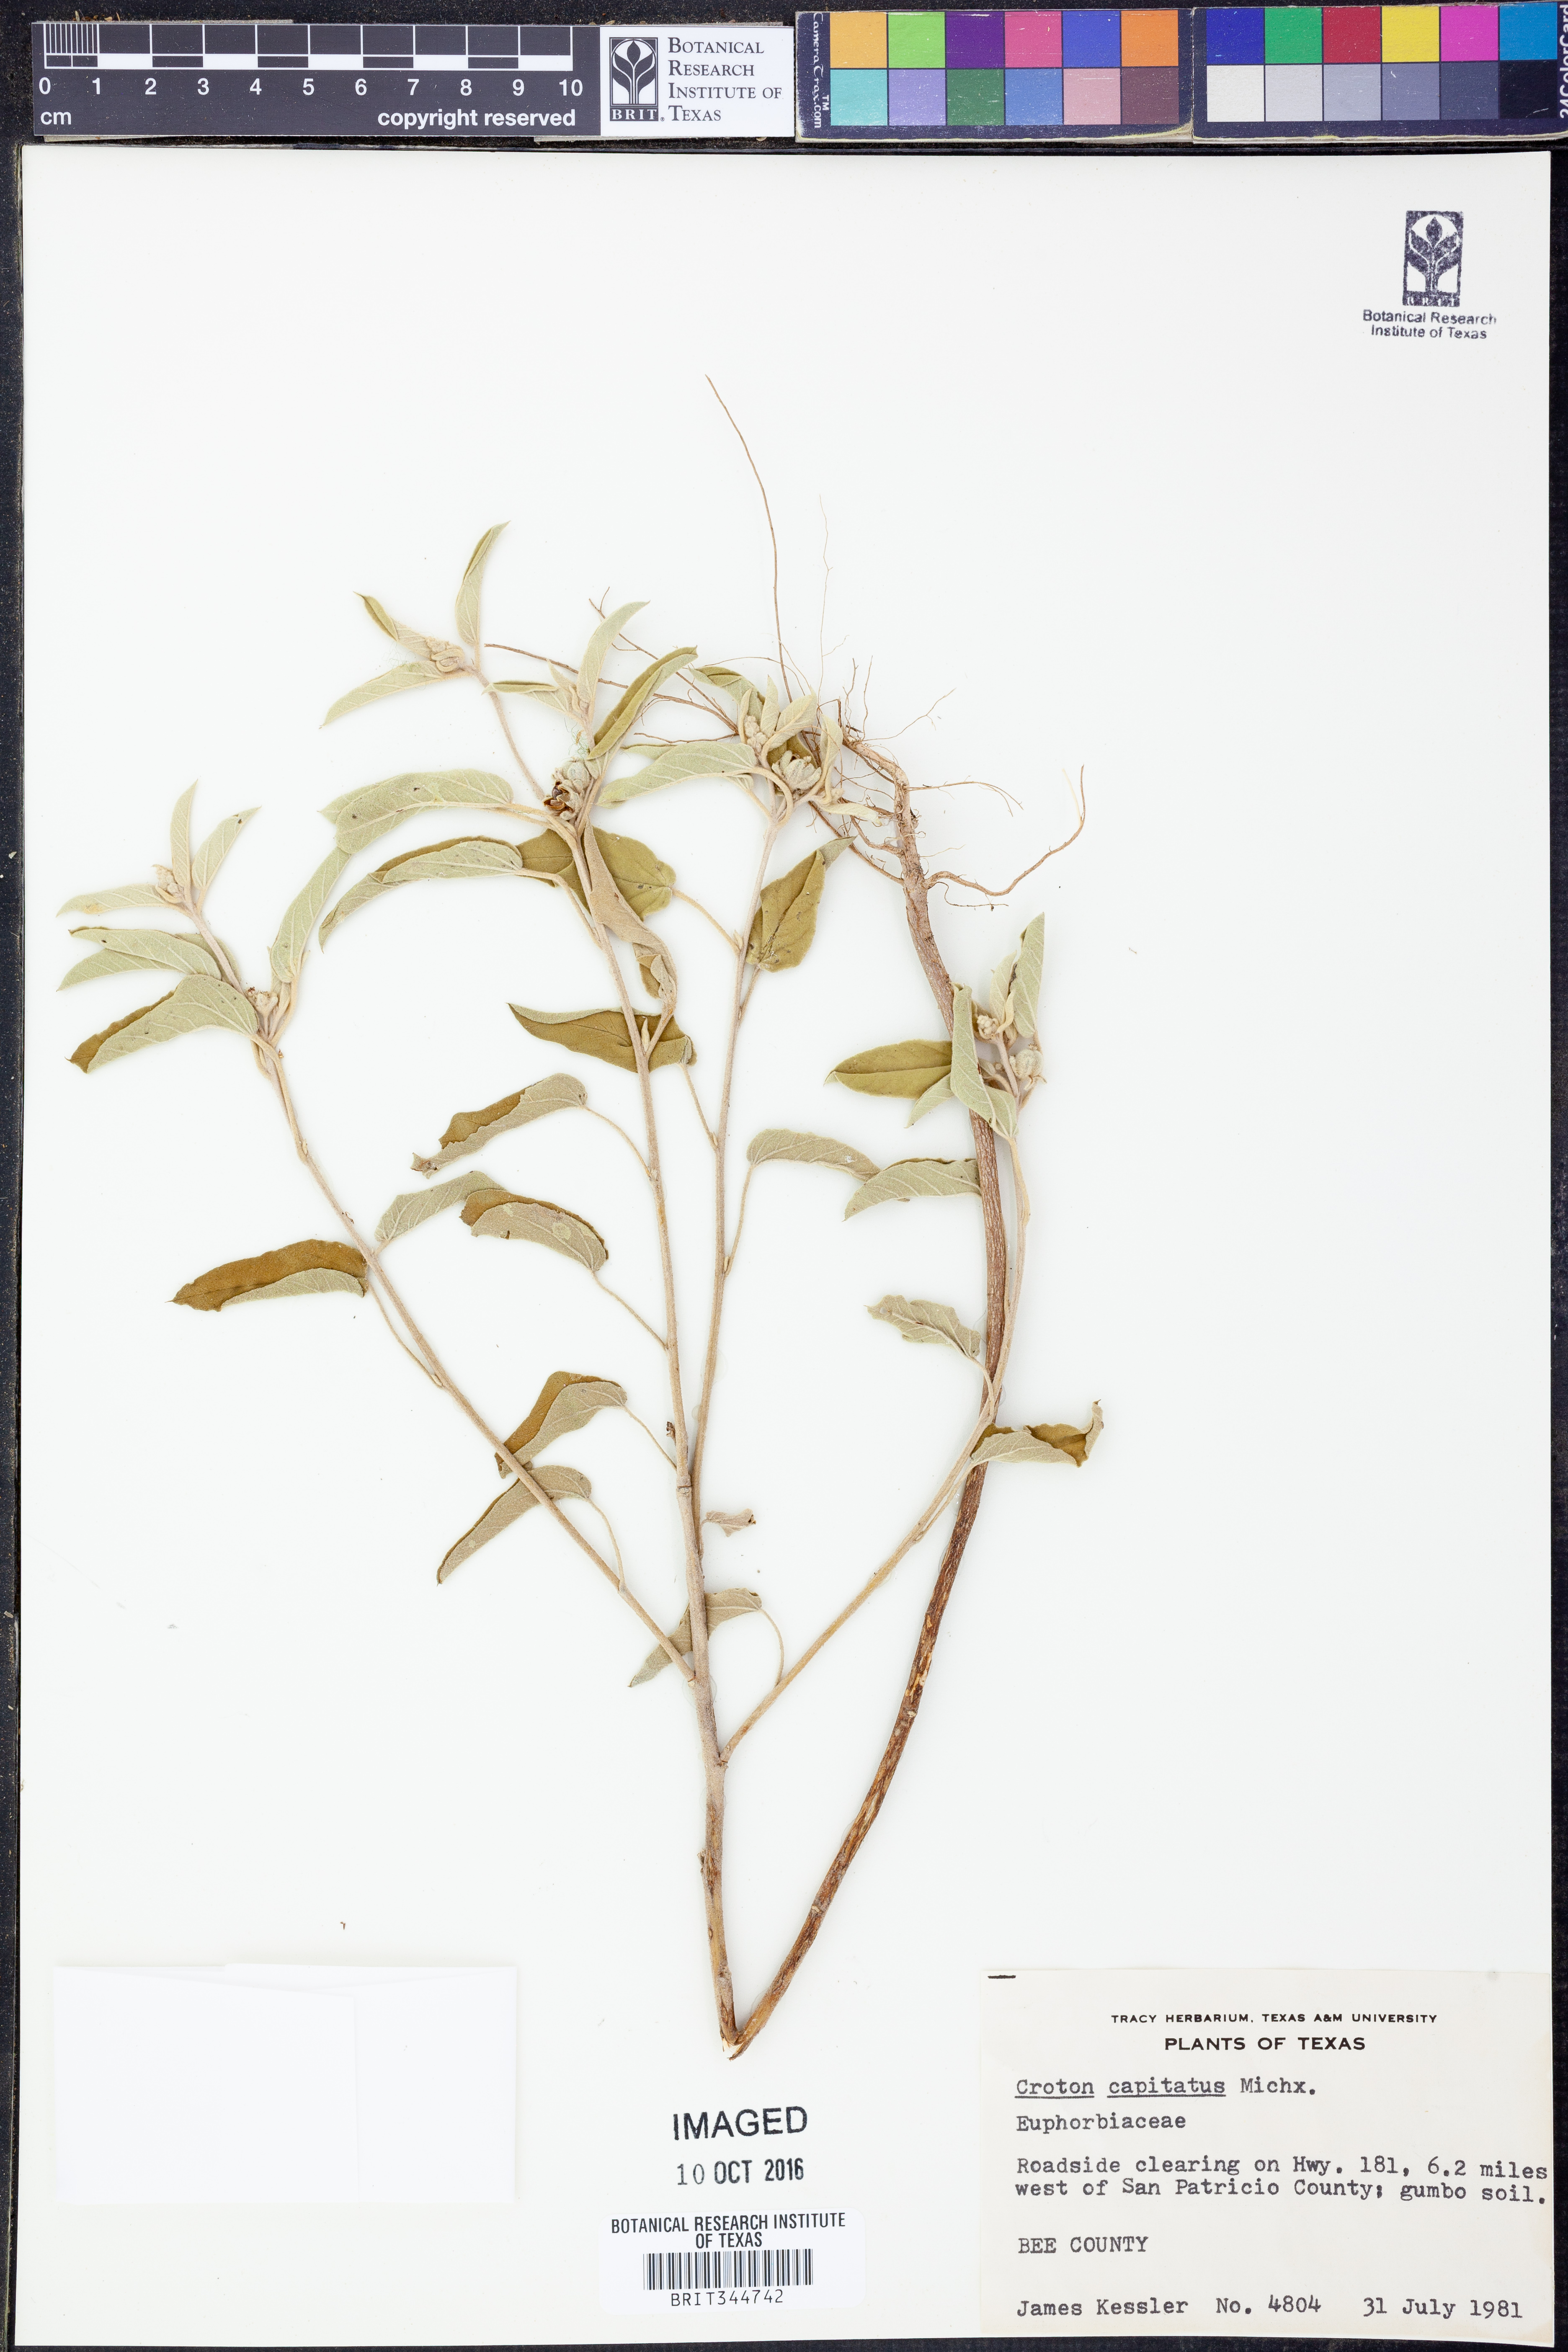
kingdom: Plantae
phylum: Tracheophyta
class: Magnoliopsida
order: Malpighiales
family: Euphorbiaceae
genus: Croton
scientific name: Croton capitatus
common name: Woolly croton
